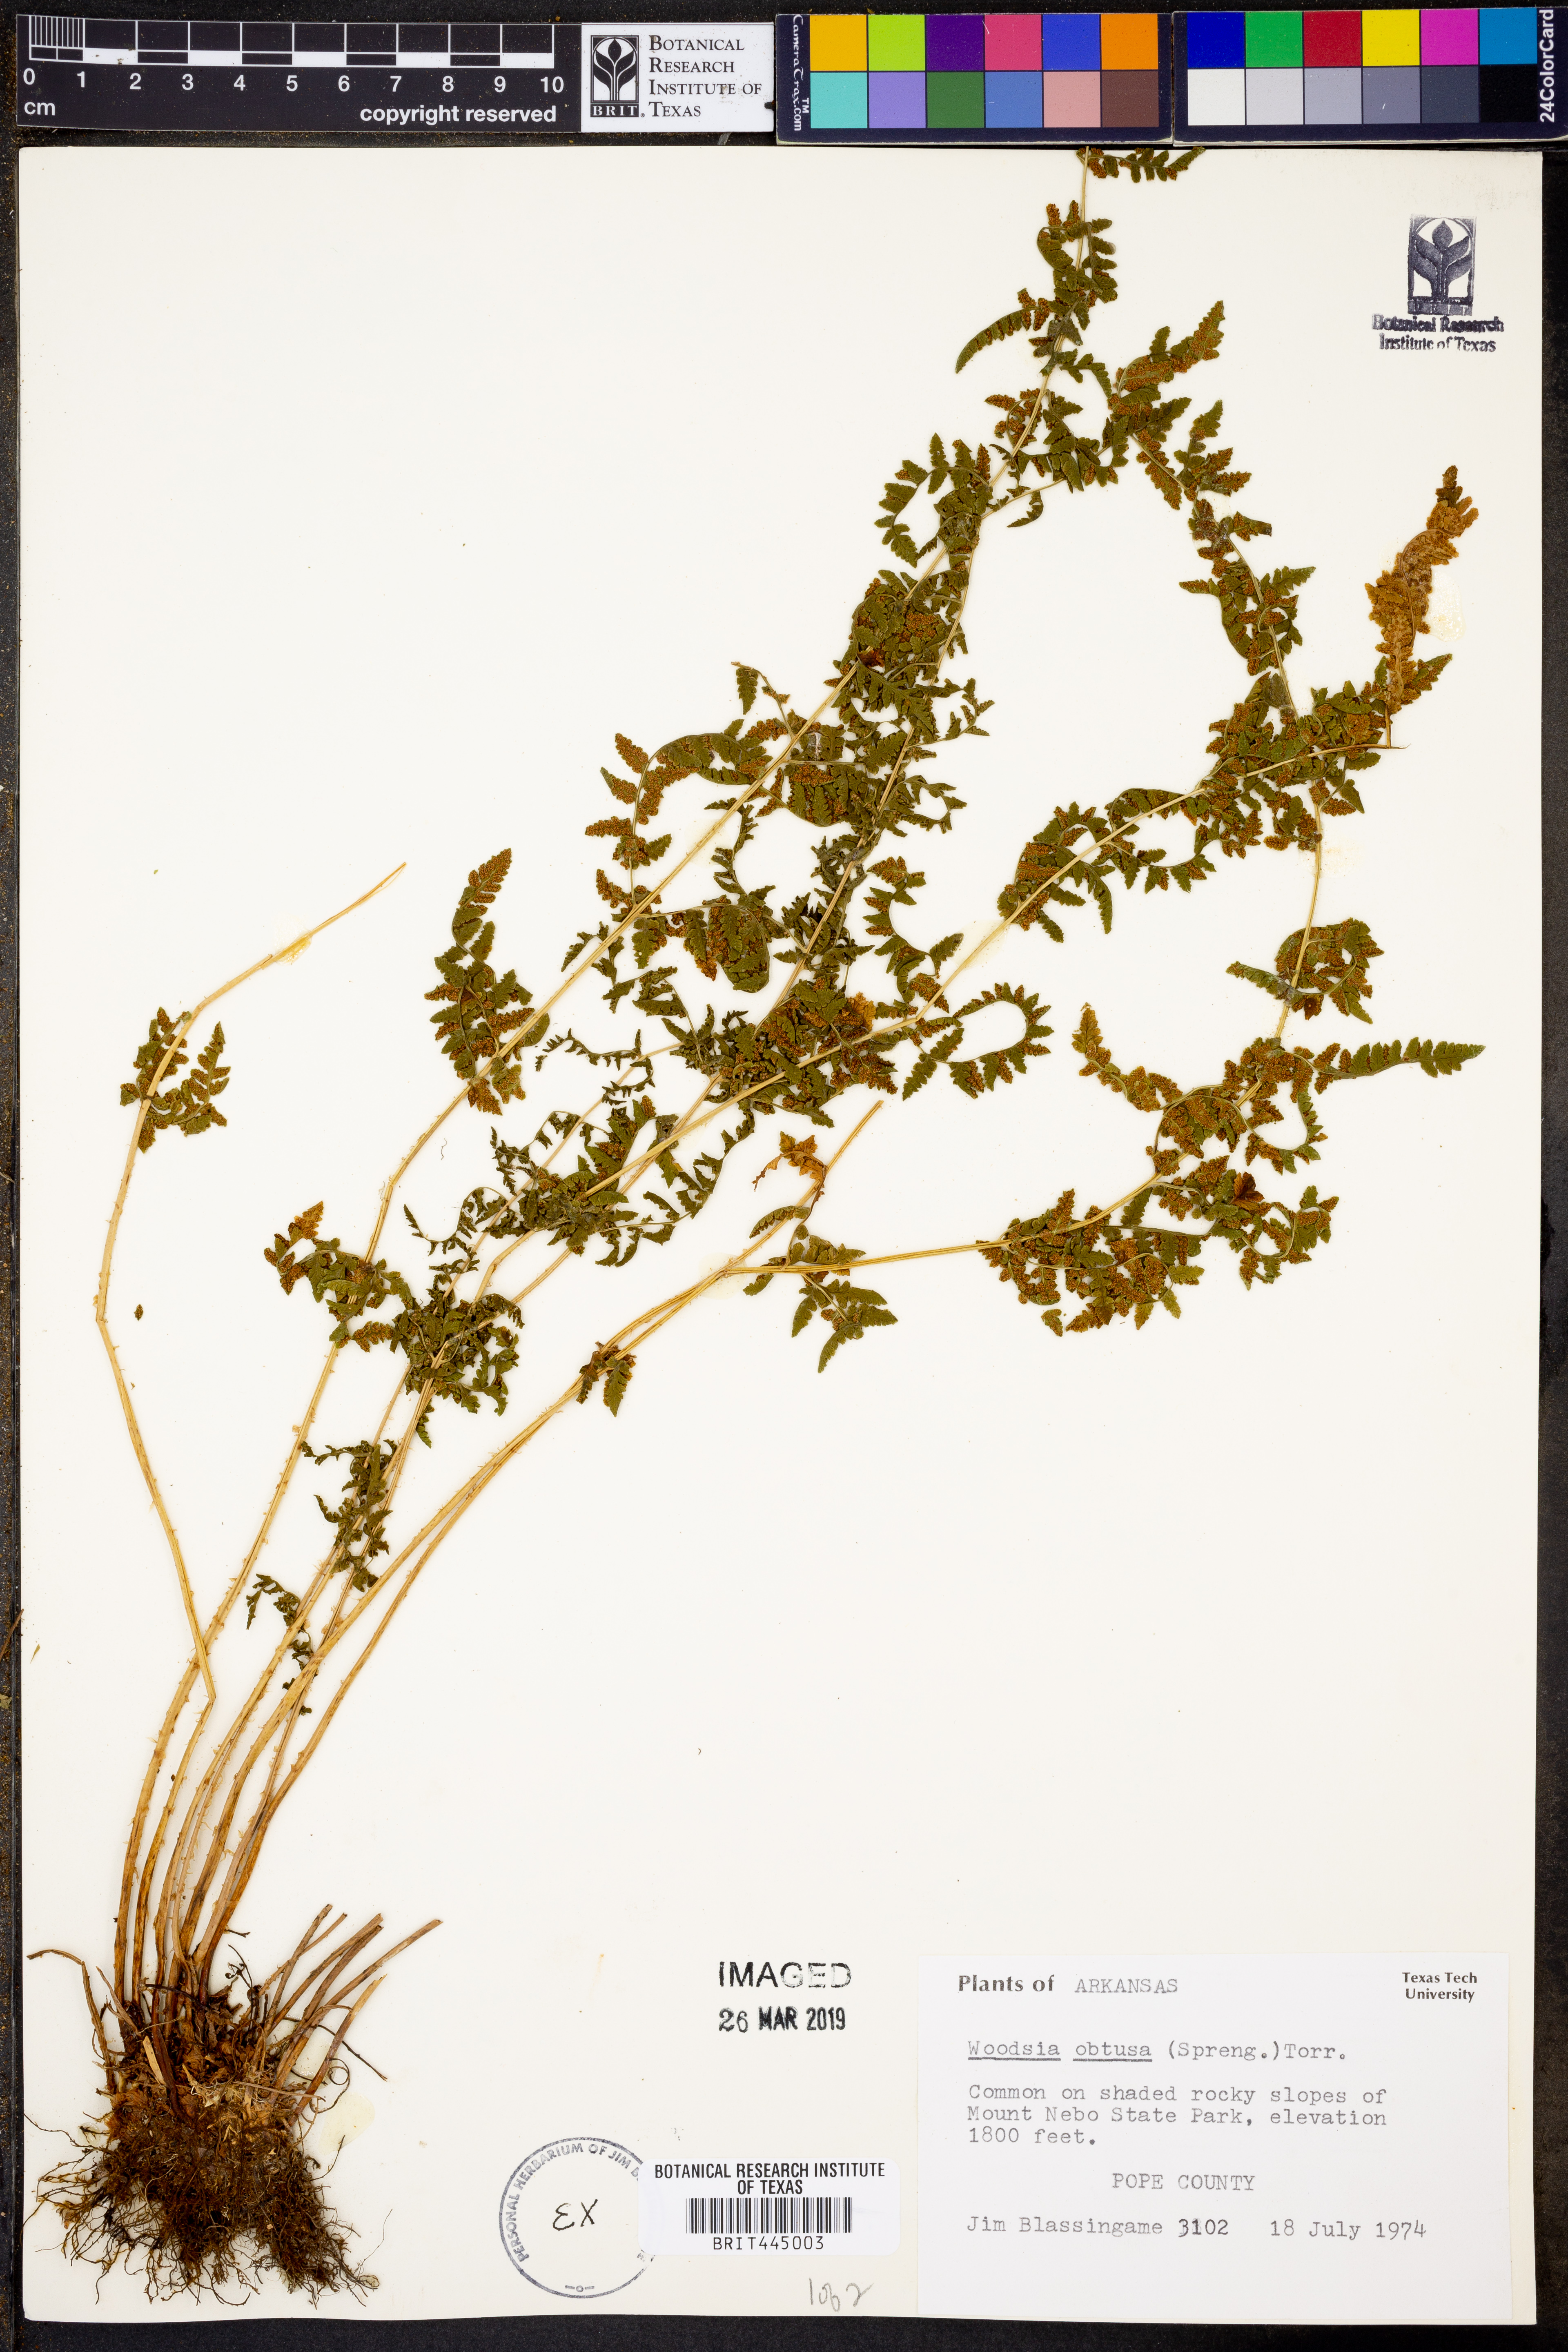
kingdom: Plantae
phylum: Tracheophyta
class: Polypodiopsida
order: Polypodiales
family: Woodsiaceae
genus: Physematium
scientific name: Physematium obtusum
